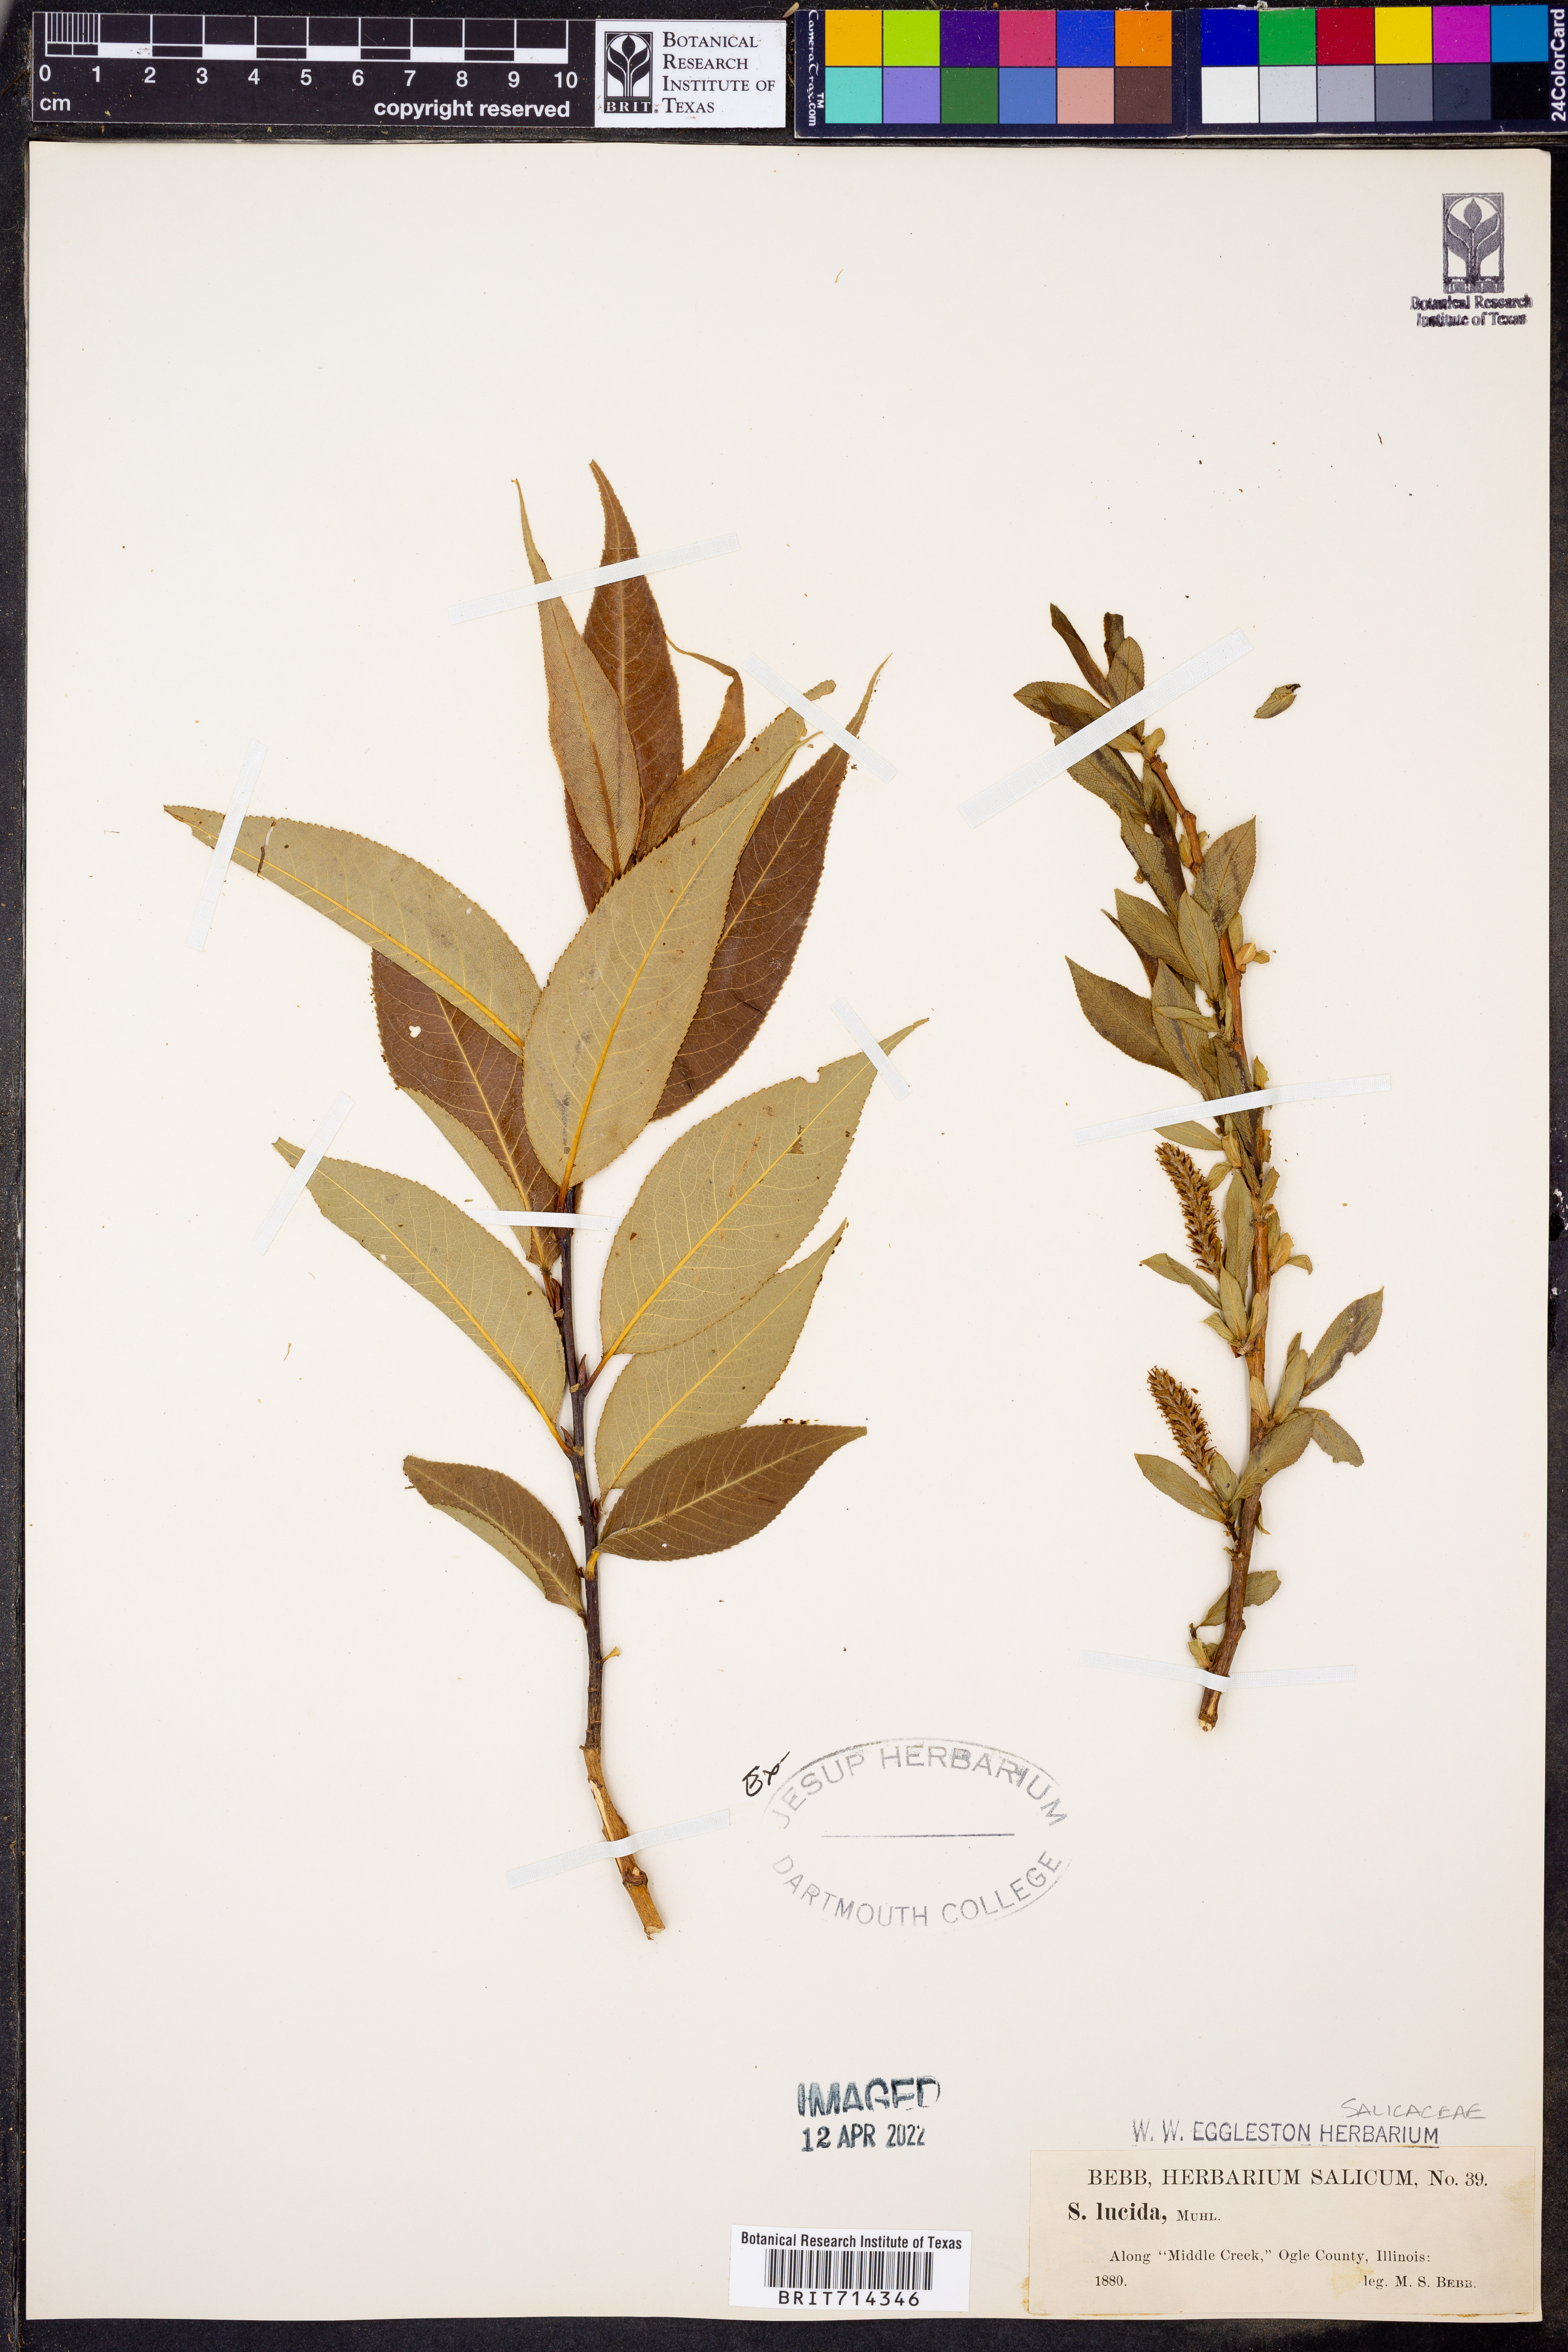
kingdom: Plantae
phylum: Tracheophyta
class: Magnoliopsida
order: Malpighiales
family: Salicaceae
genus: Salix
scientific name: Salix lucida
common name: Shining willow
